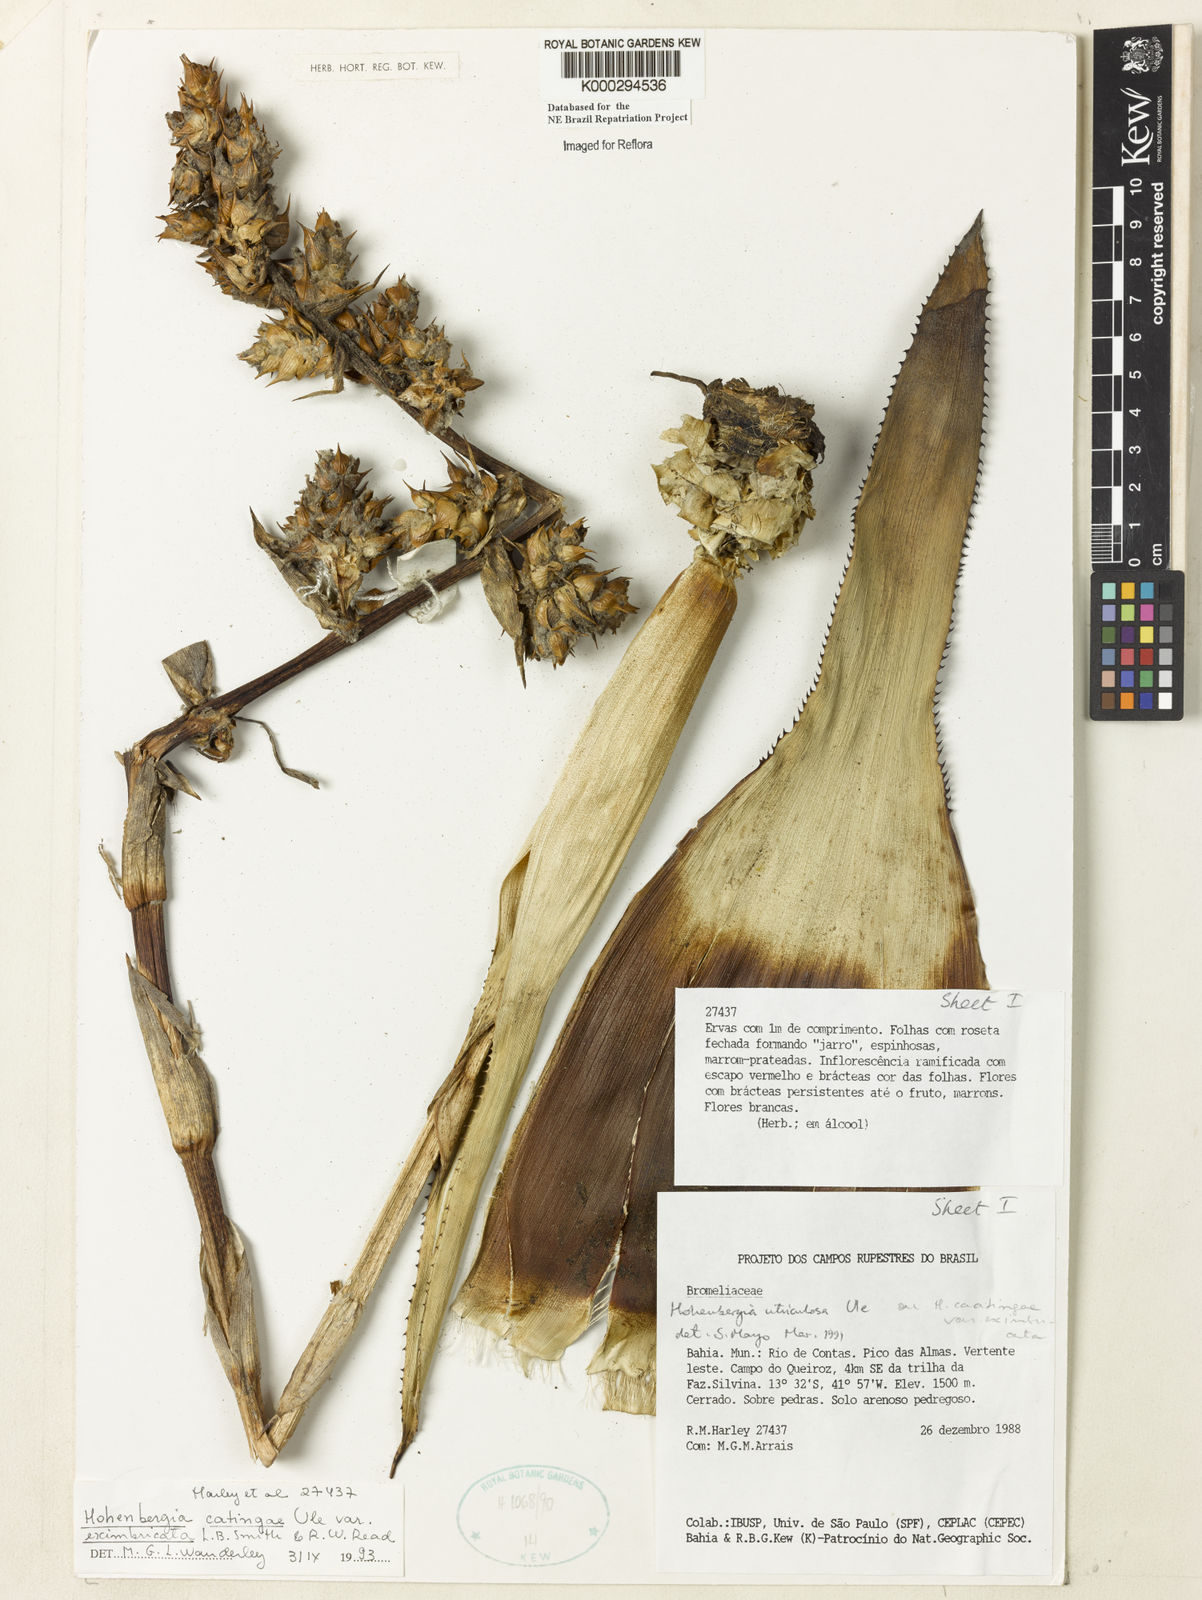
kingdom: Plantae
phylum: Tracheophyta
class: Liliopsida
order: Poales
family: Bromeliaceae
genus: Hohenbergia
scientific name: Hohenbergia catingae
